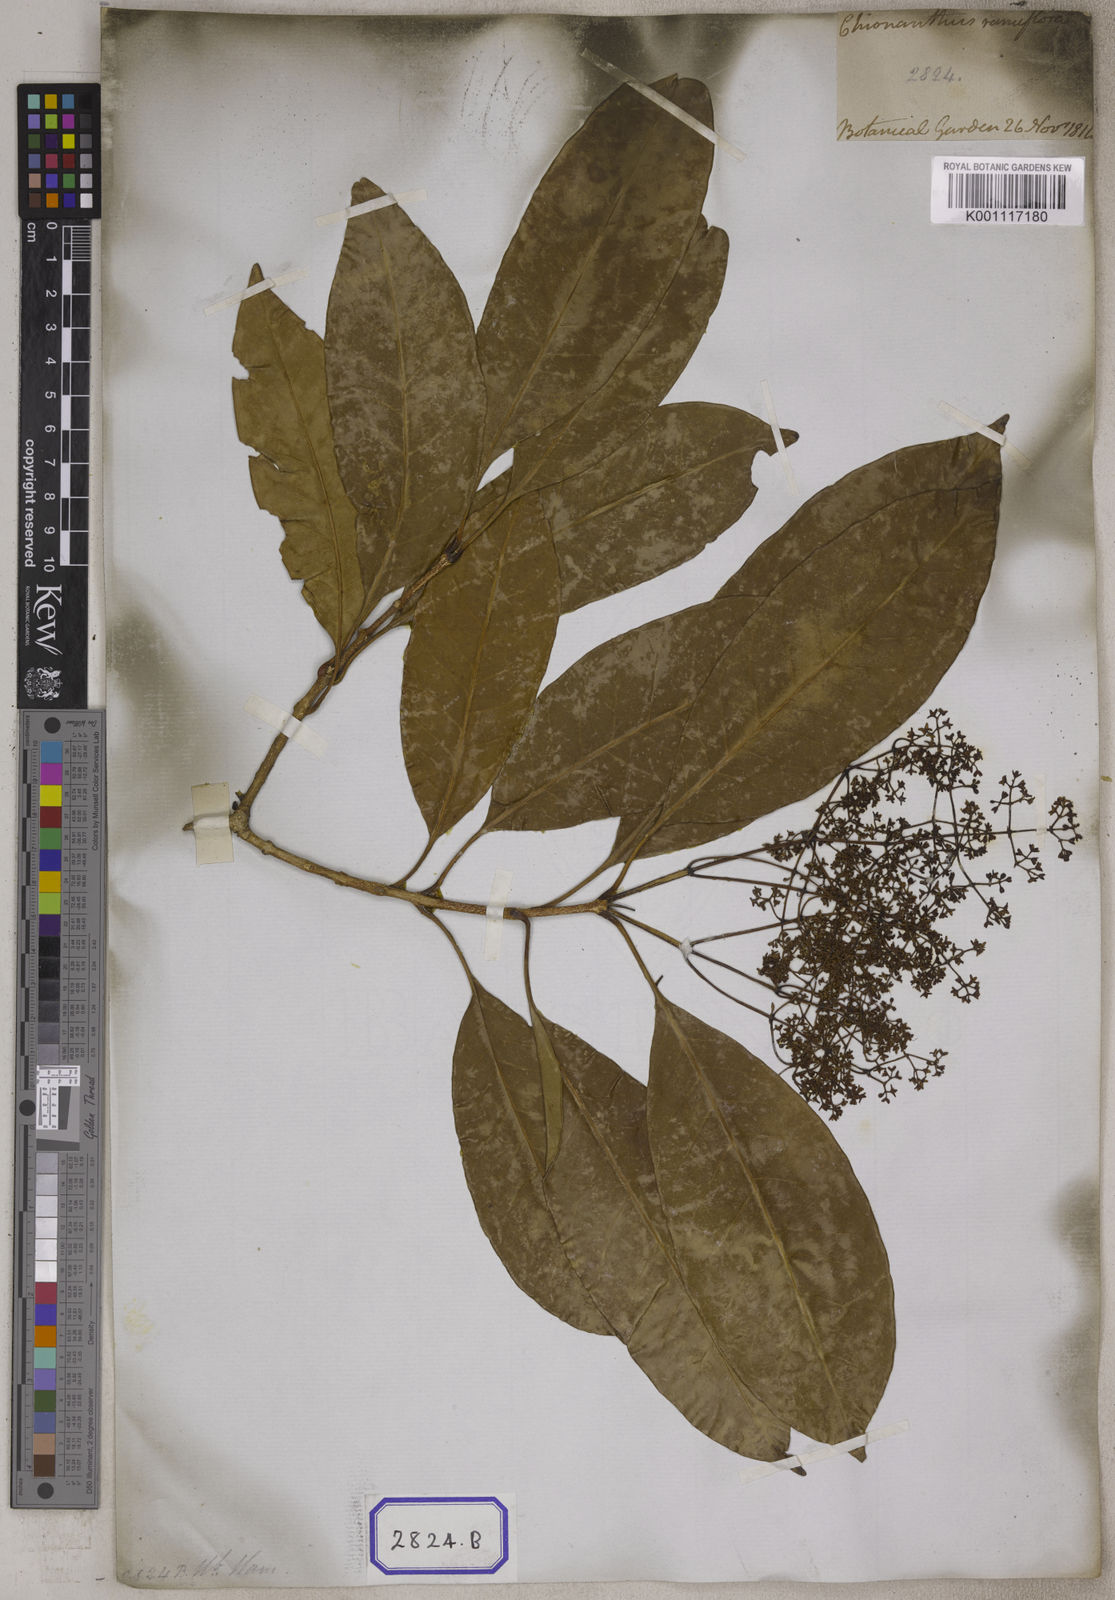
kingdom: Plantae
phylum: Tracheophyta
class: Magnoliopsida
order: Lamiales
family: Oleaceae
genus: Chionanthus
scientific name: Chionanthus ramiflorus
